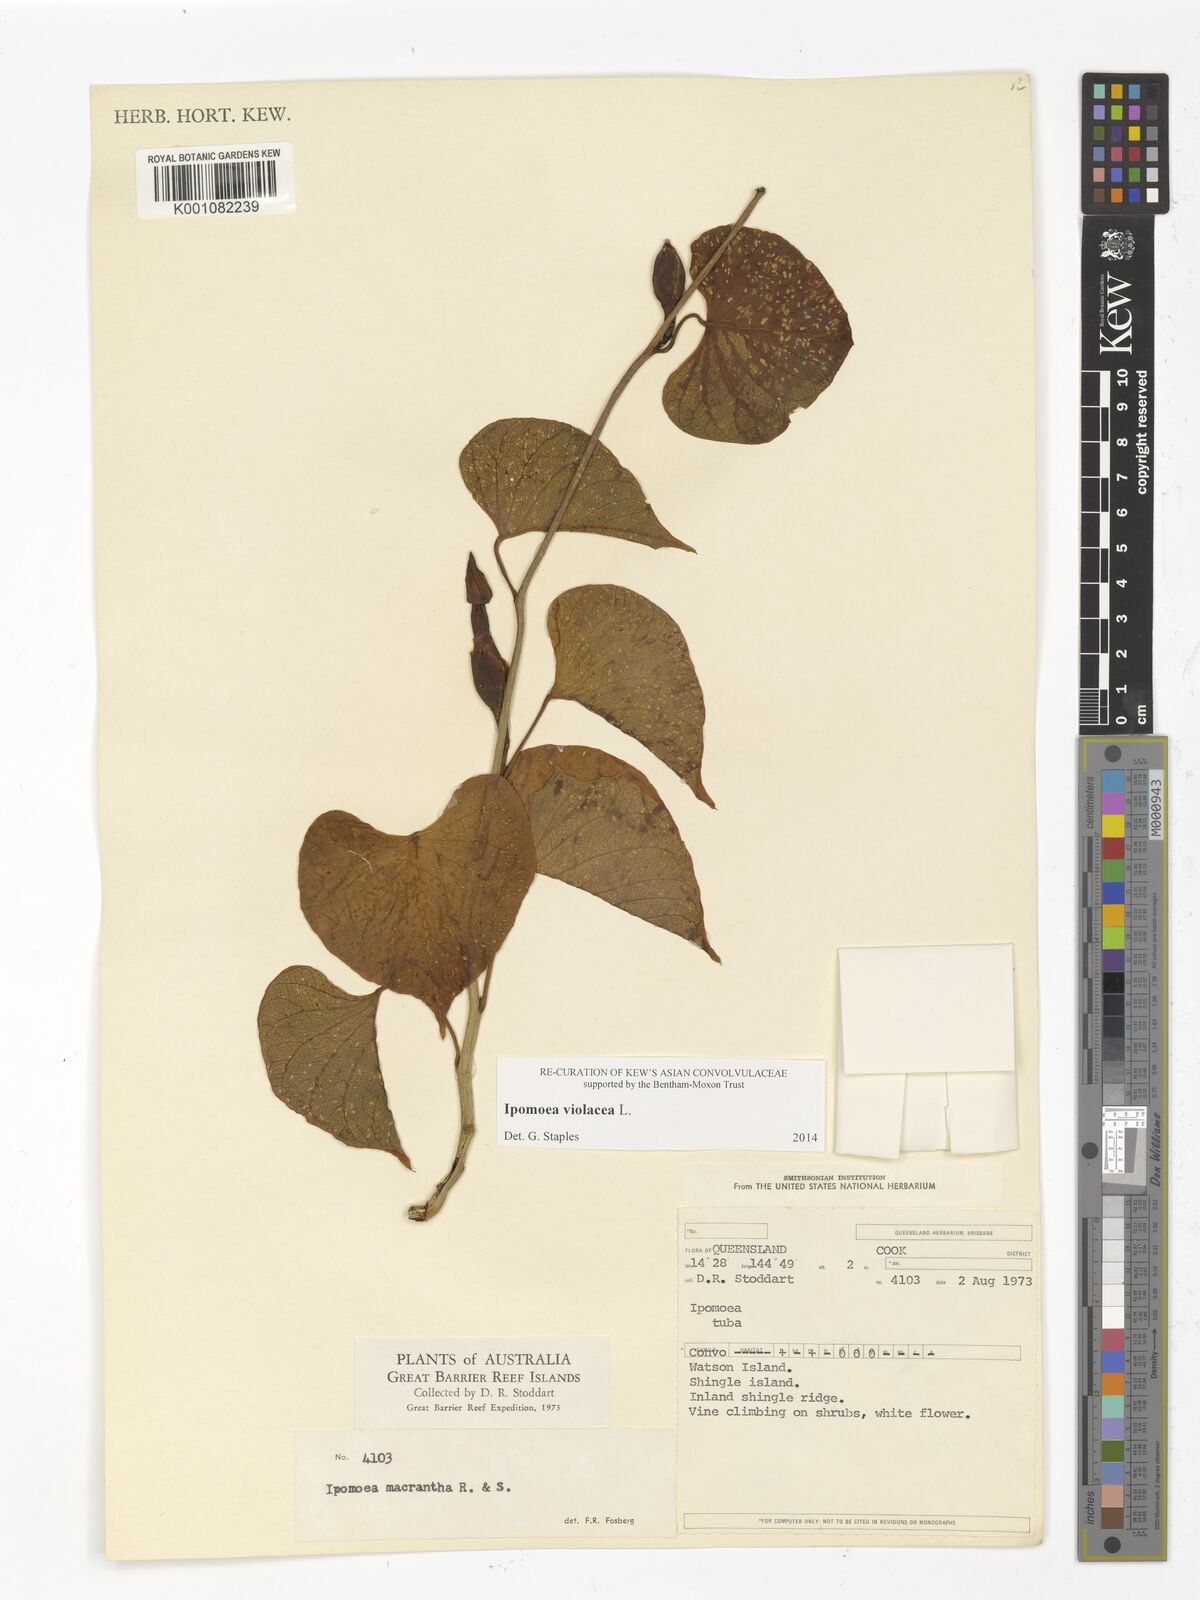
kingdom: Plantae
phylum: Tracheophyta
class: Magnoliopsida
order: Solanales
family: Convolvulaceae
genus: Ipomoea
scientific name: Ipomoea violacea
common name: Beach moonflower
